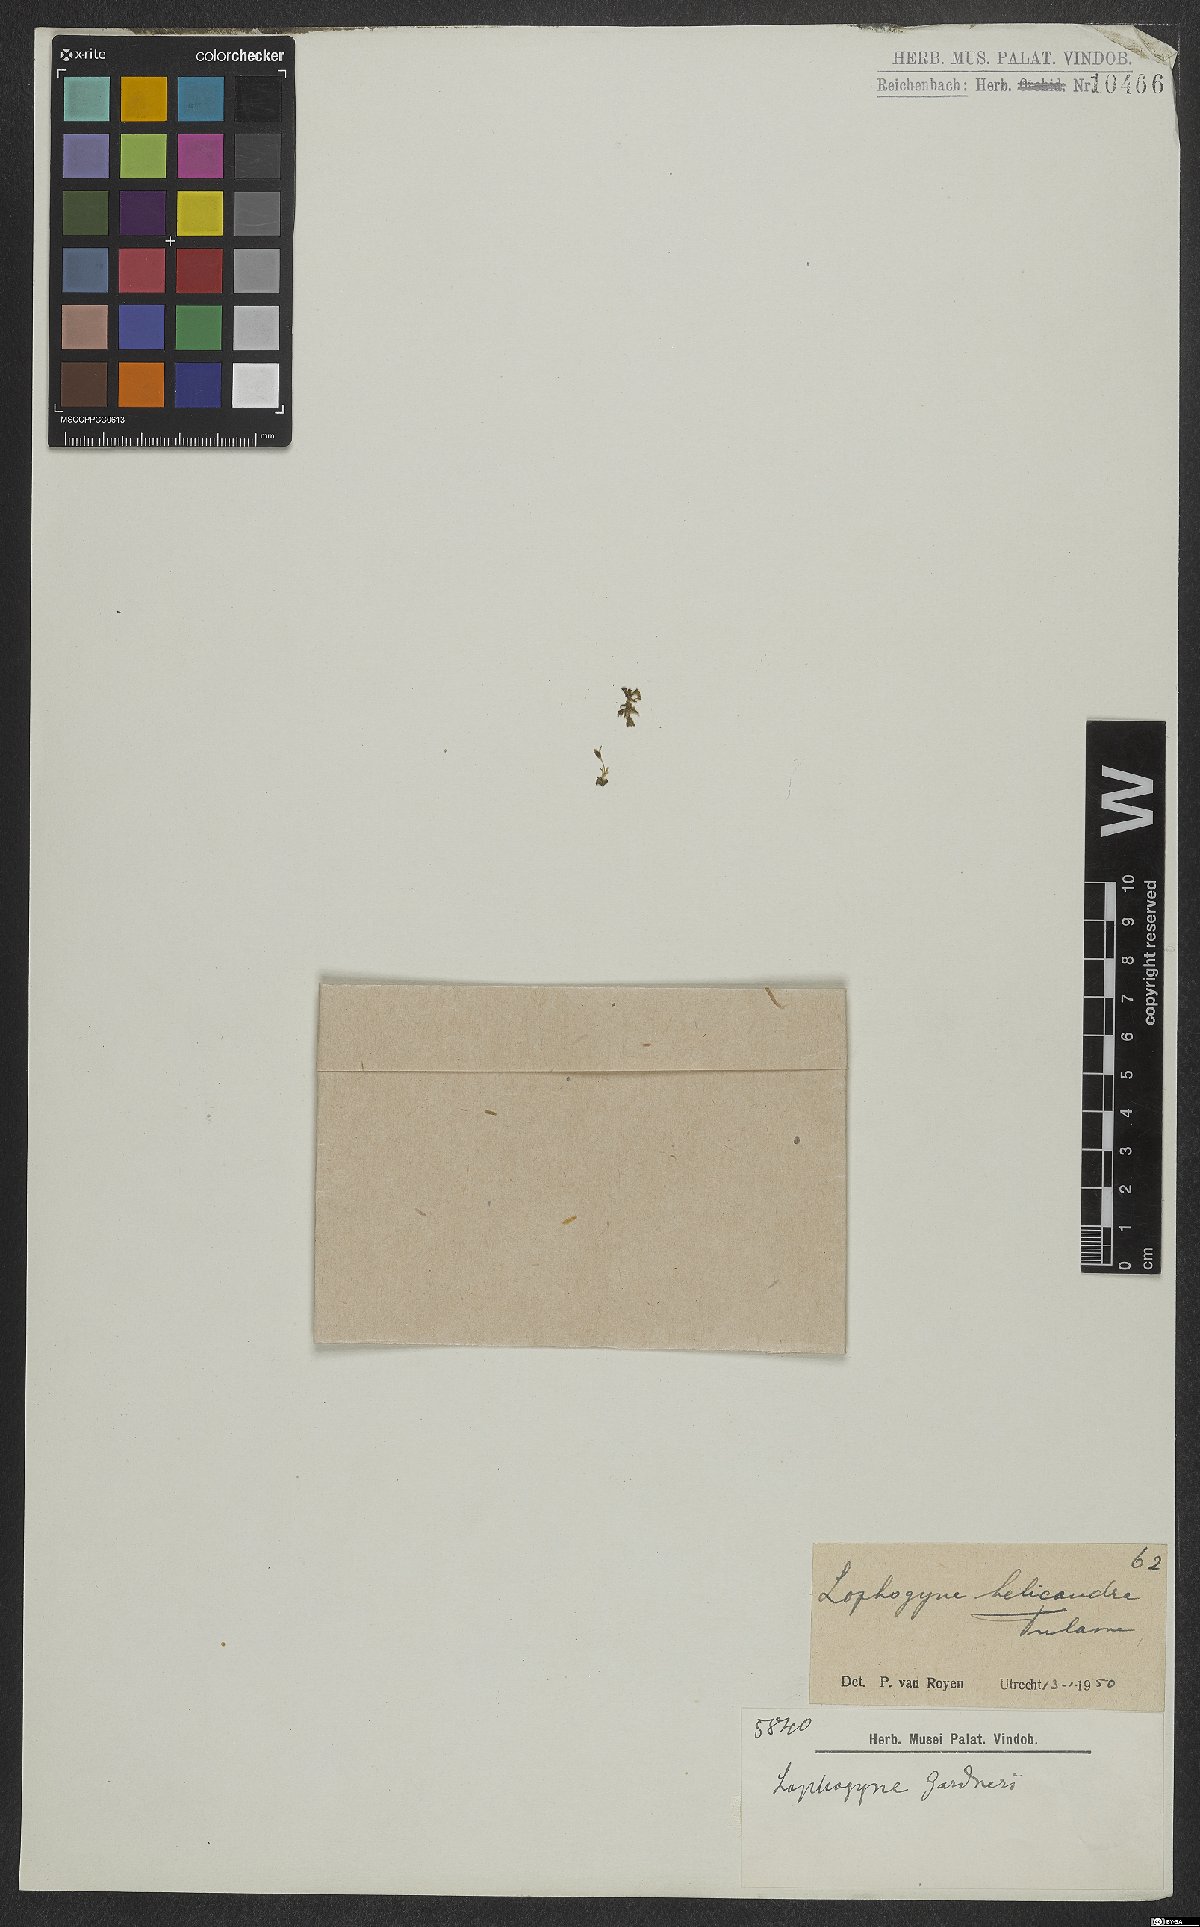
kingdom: Plantae
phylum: Tracheophyta
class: Magnoliopsida
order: Malpighiales
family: Podostemaceae
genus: Lophogyne
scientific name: Lophogyne helicandra
